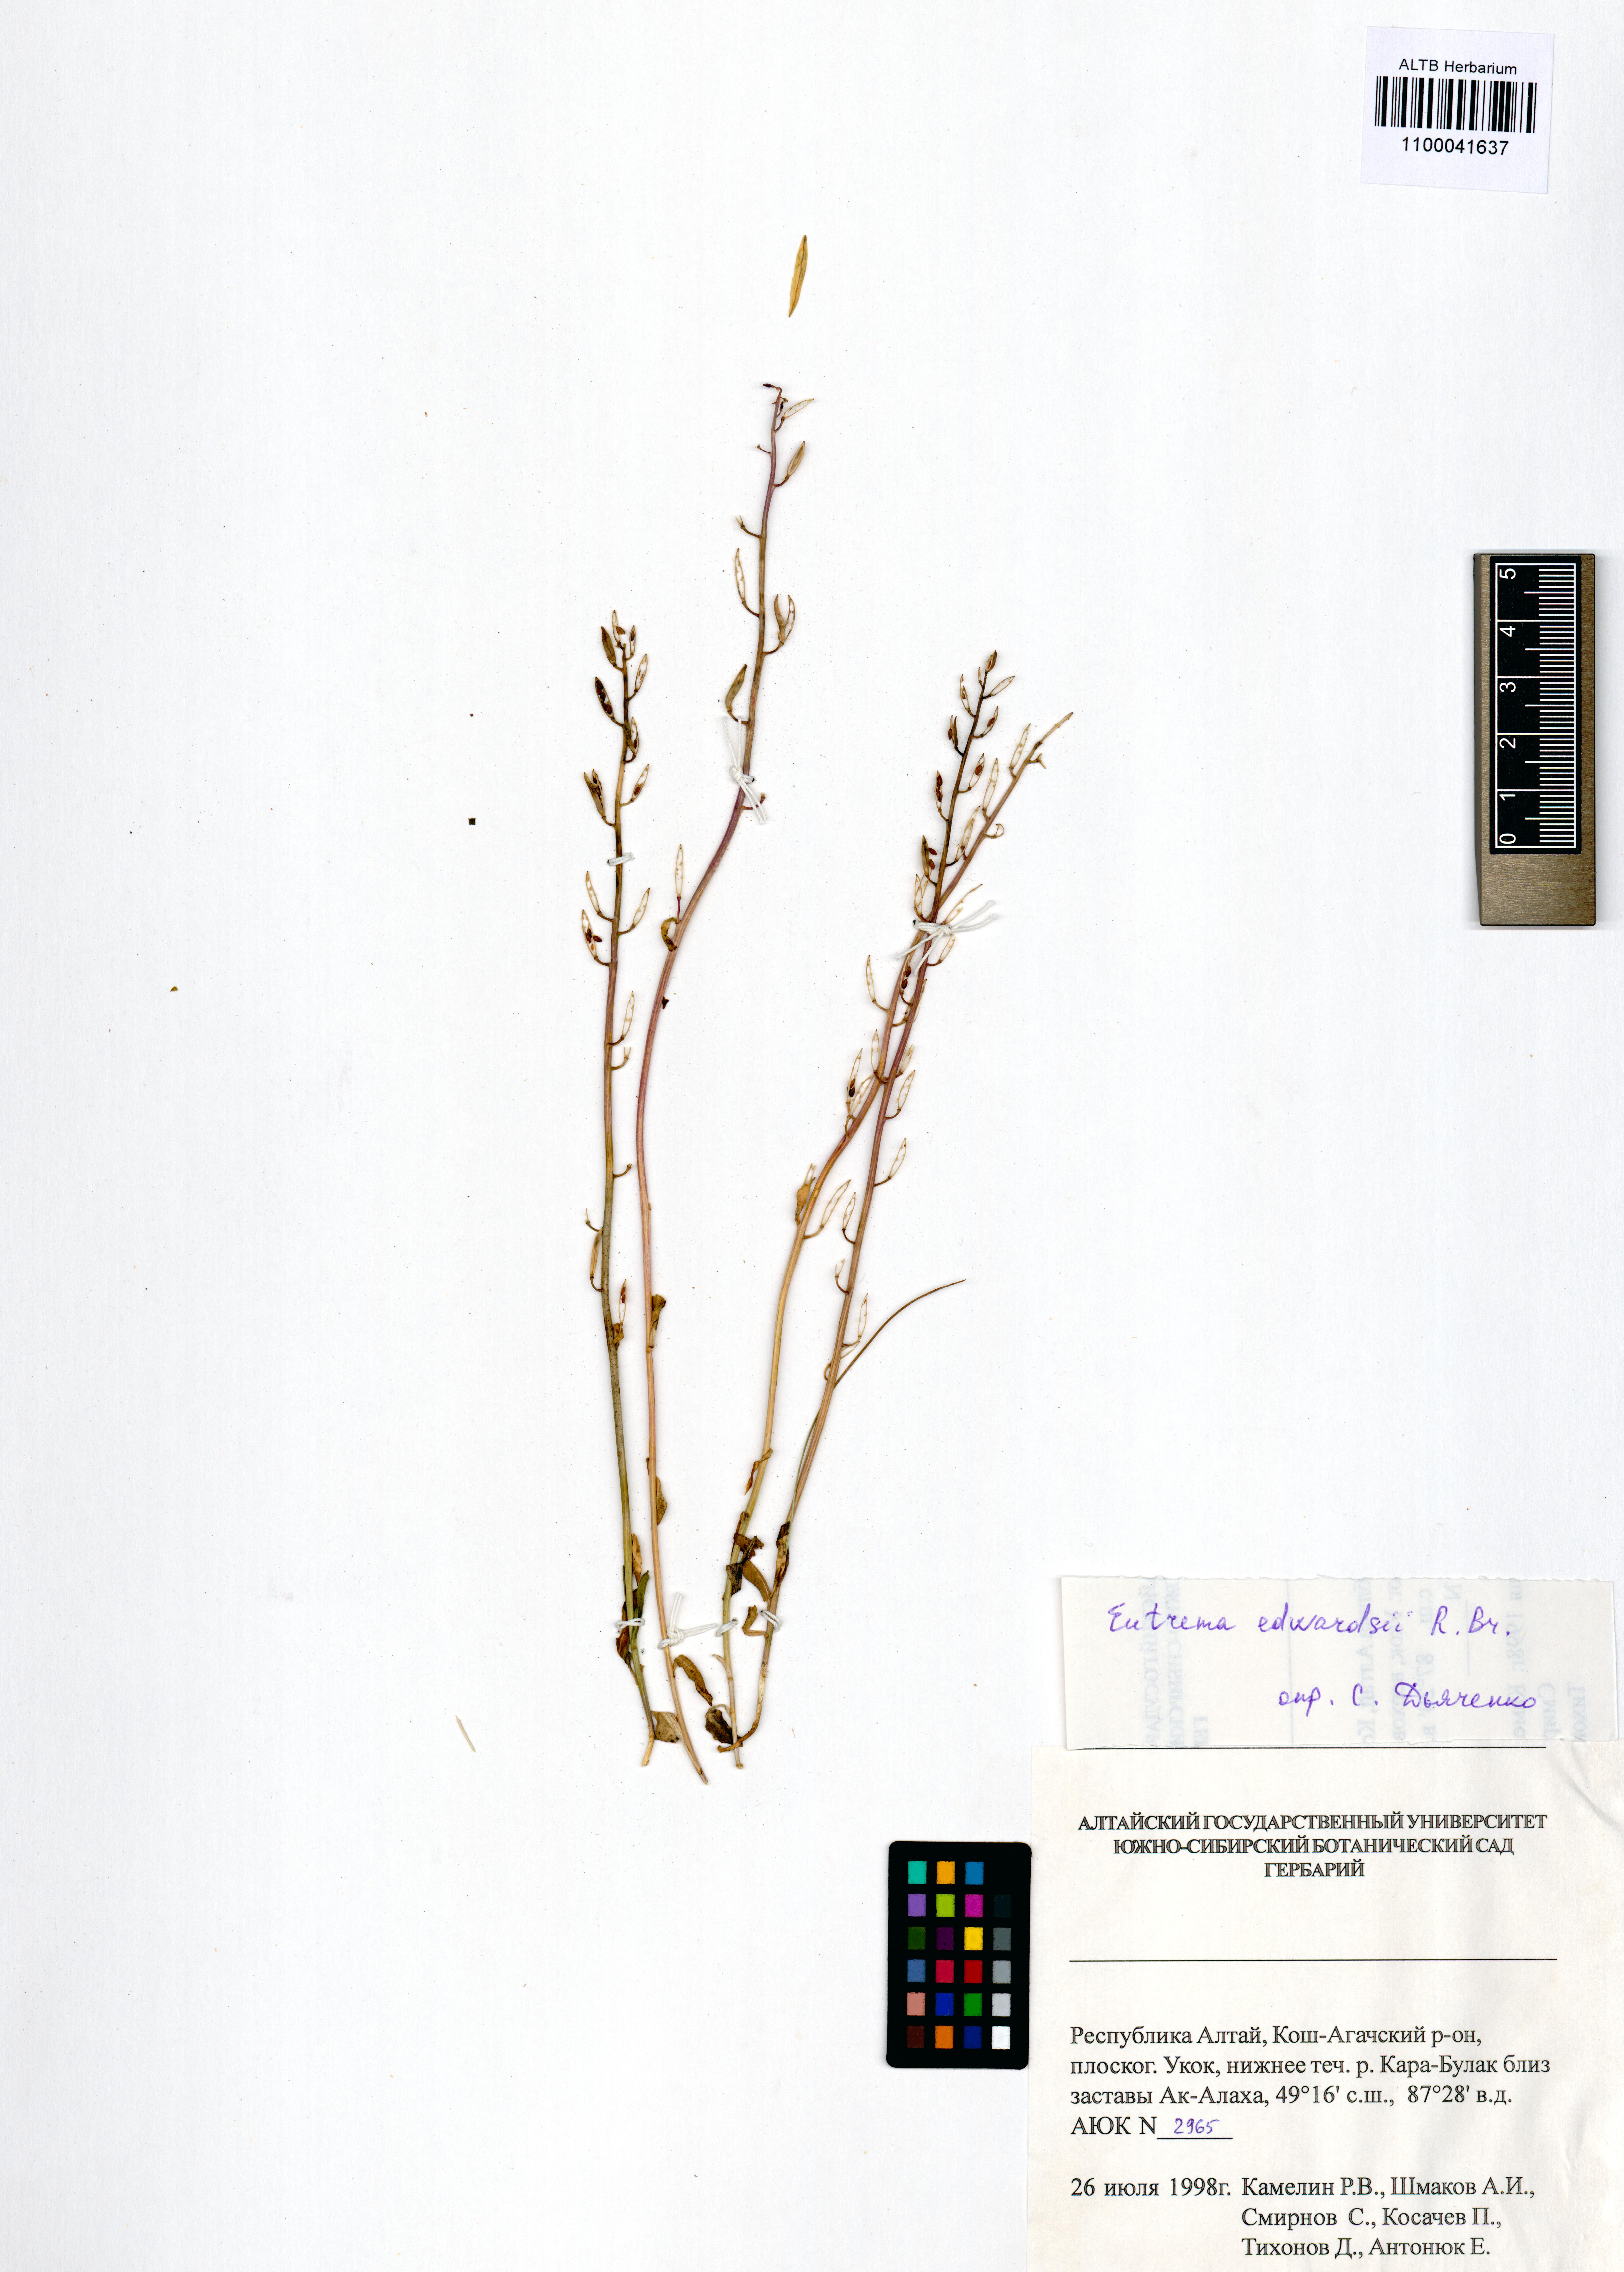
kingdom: Plantae
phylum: Tracheophyta
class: Magnoliopsida
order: Brassicales
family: Brassicaceae
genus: Eutrema
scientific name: Eutrema edwardsii
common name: Penland alpine fen mustard
